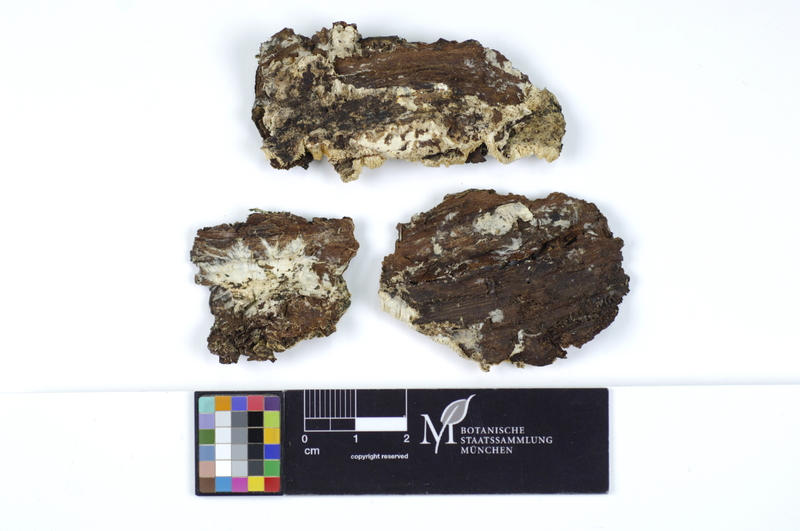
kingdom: Fungi
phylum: Basidiomycota
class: Agaricomycetes
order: Polyporales
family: Gelatoporiaceae
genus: Cinereomyces
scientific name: Cinereomyces lindbladii
